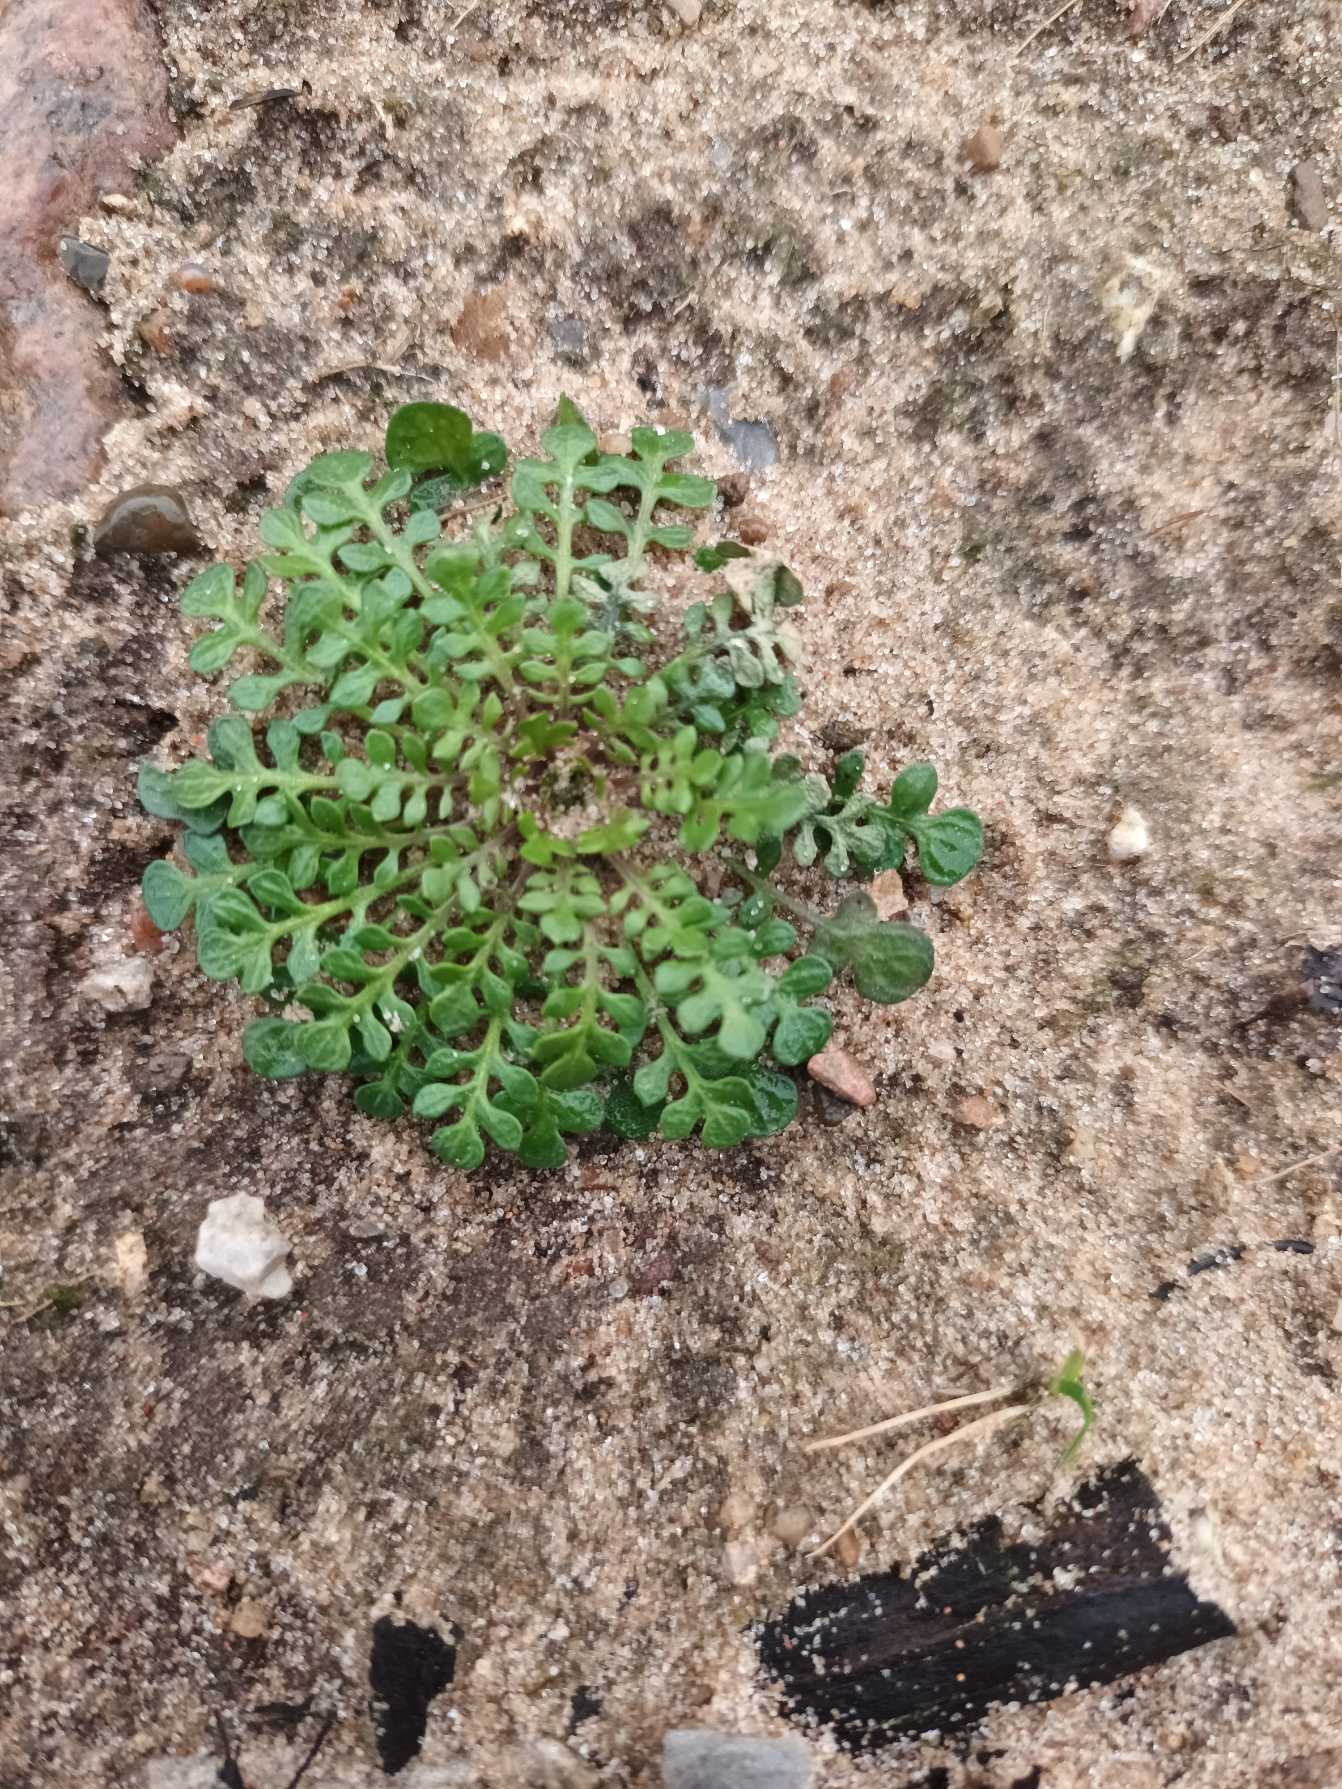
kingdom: Plantae
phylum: Tracheophyta
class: Magnoliopsida
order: Brassicales
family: Brassicaceae
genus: Teesdalia
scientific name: Teesdalia nudicaulis
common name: Flipkrave
